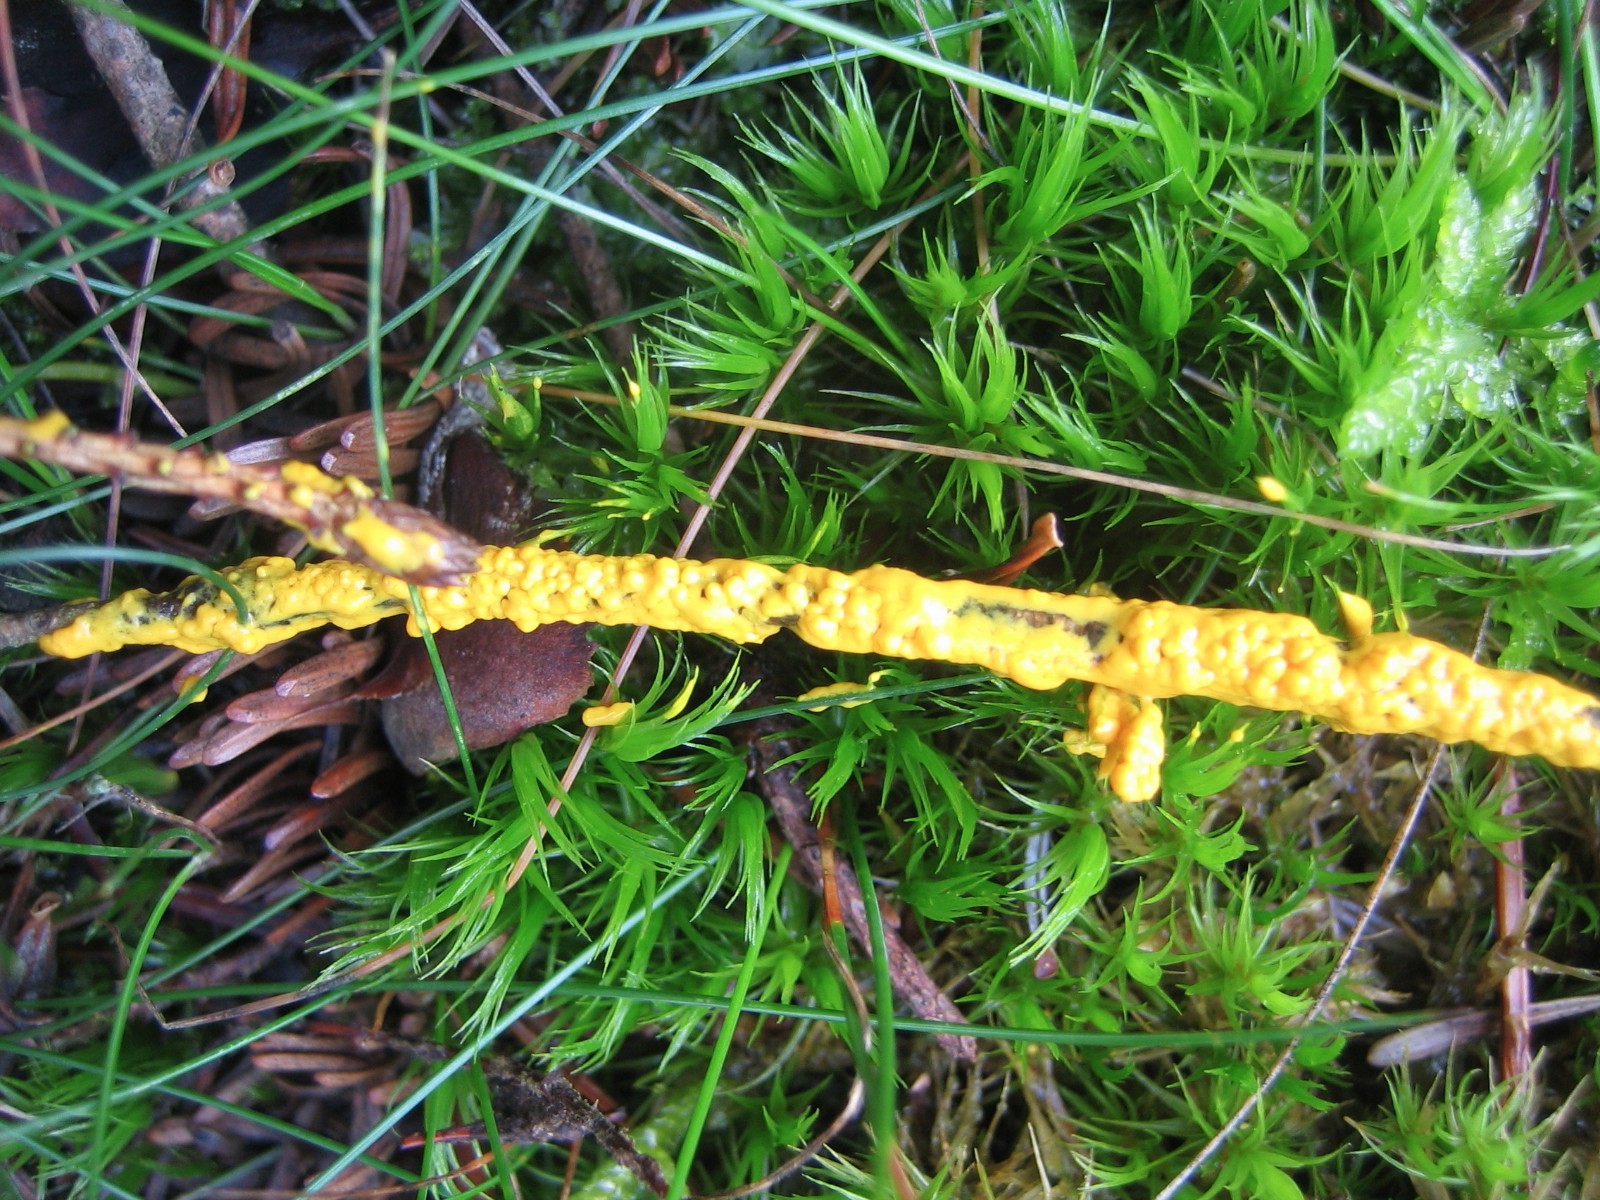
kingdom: Protozoa
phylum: Mycetozoa
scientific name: Mycetozoa
